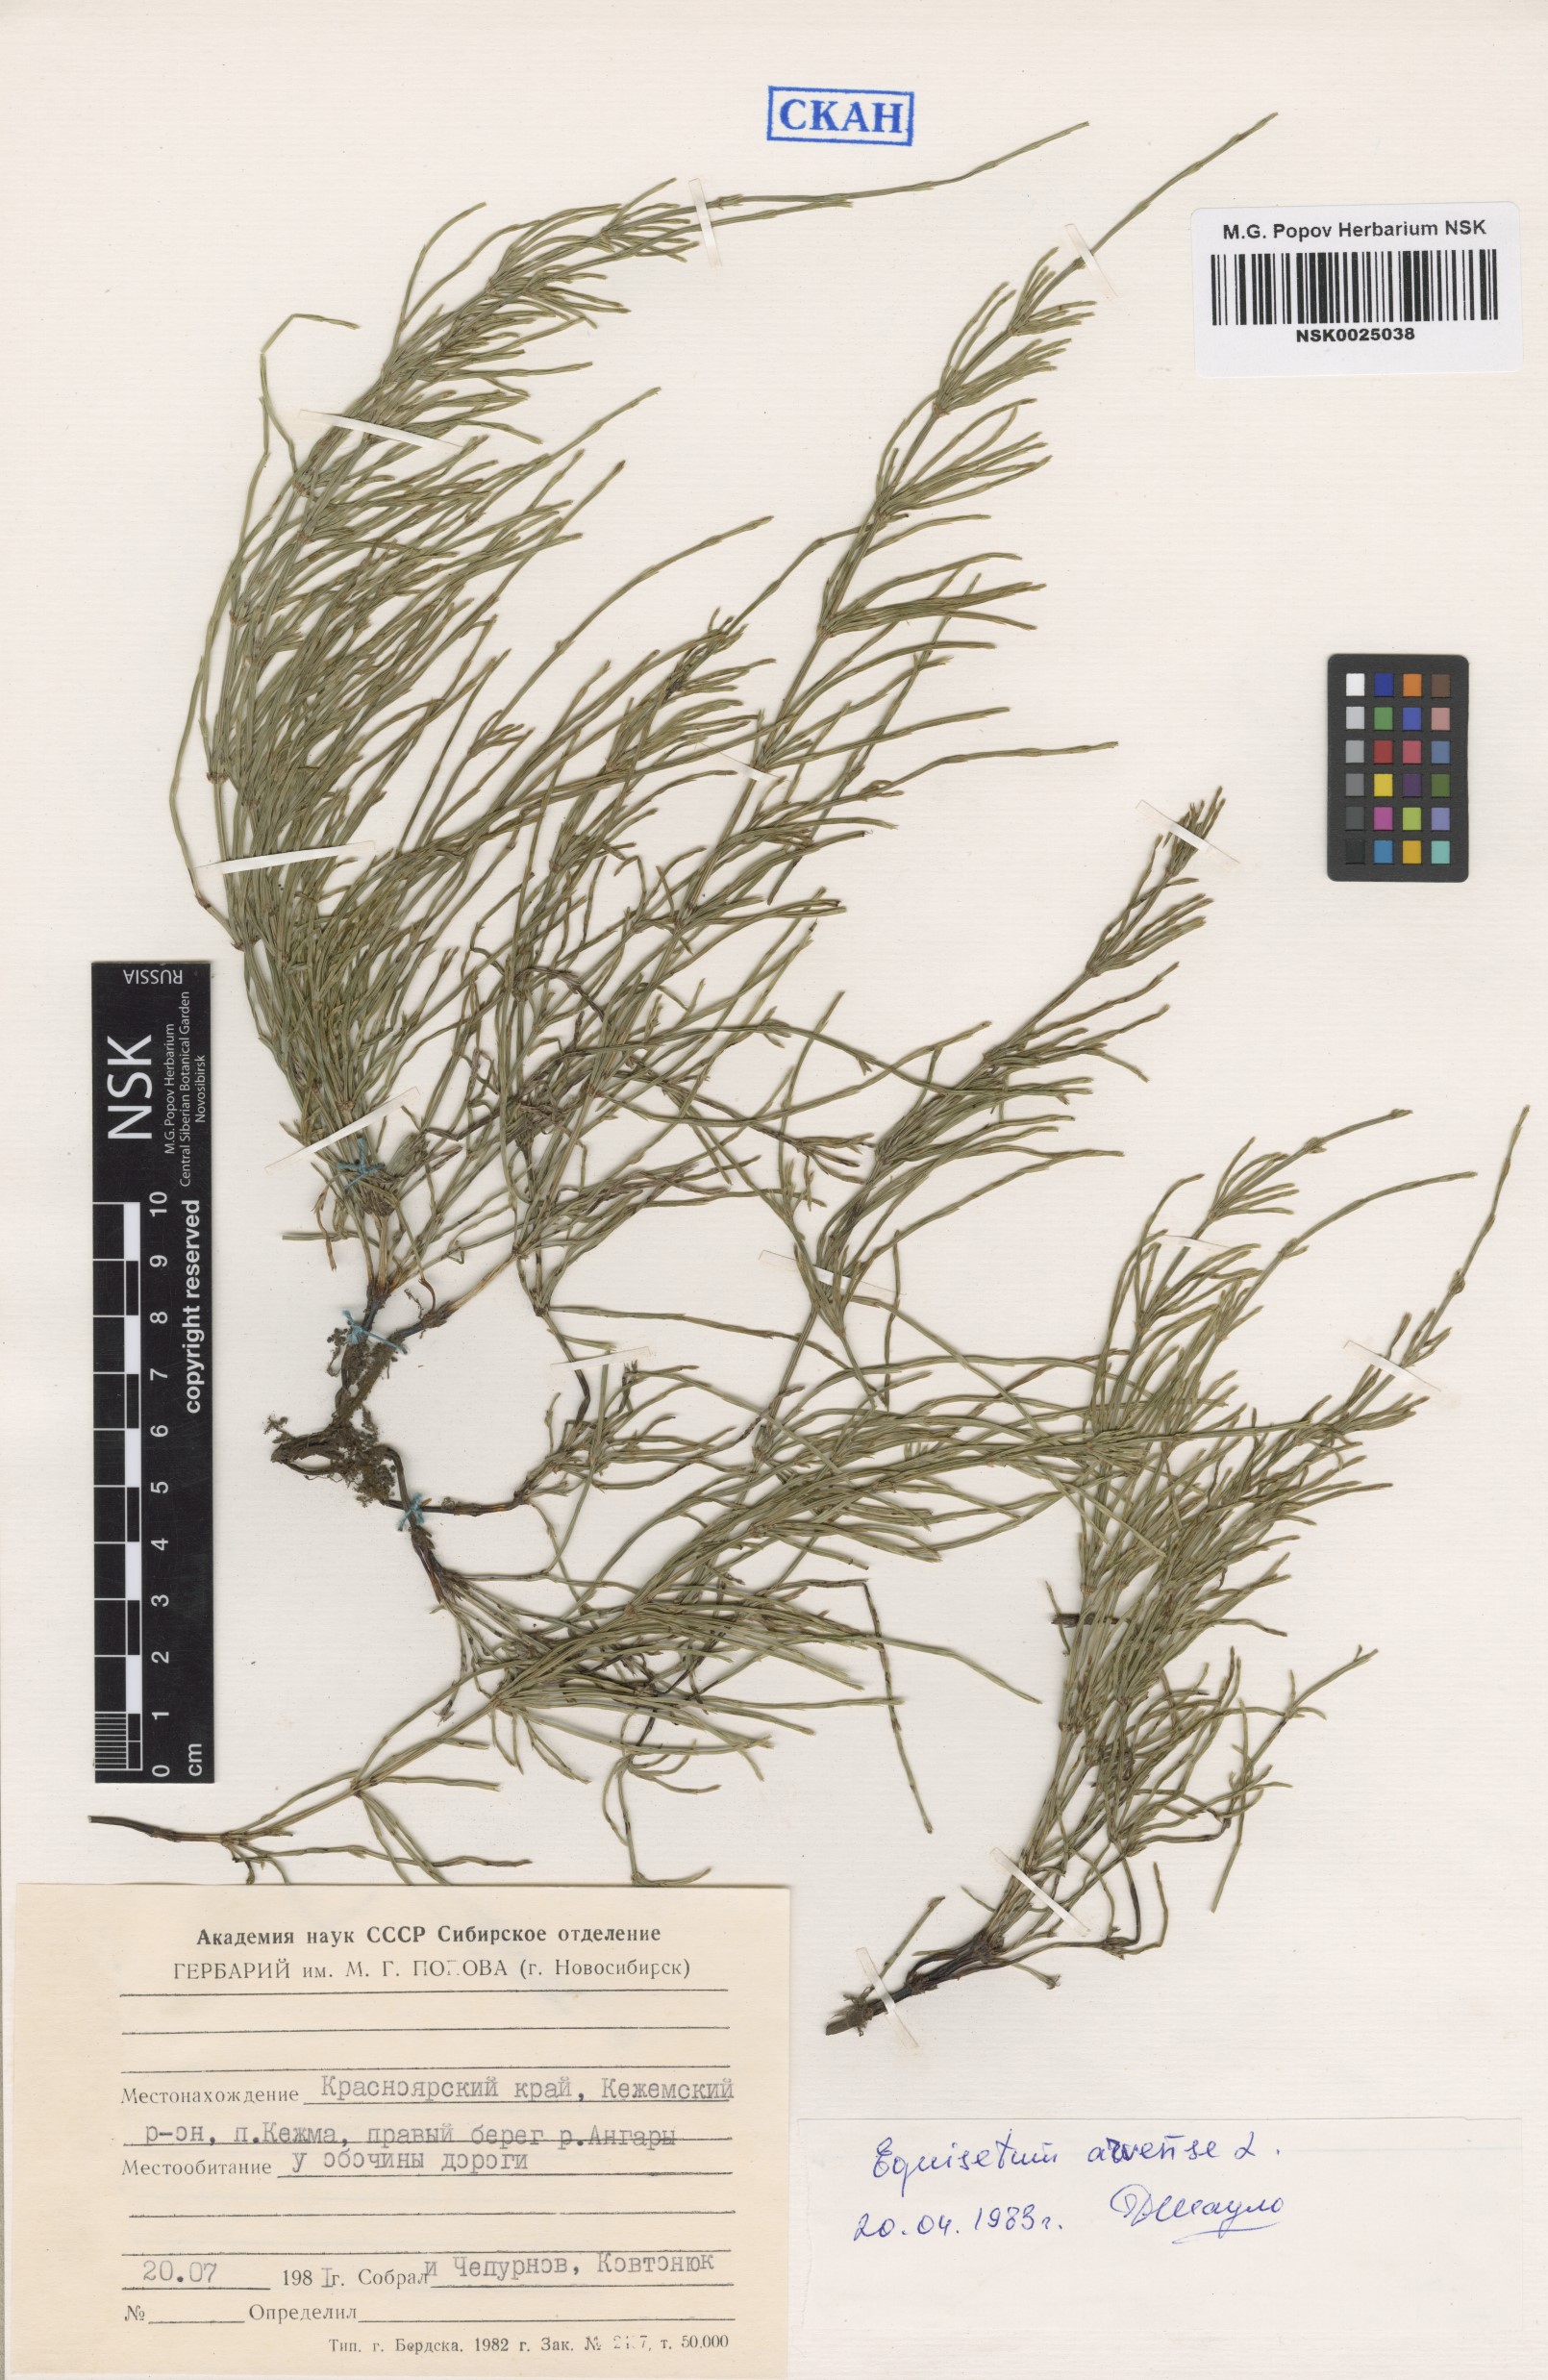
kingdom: Plantae
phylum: Tracheophyta
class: Polypodiopsida
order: Equisetales
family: Equisetaceae
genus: Equisetum
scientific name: Equisetum arvense
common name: Field horsetail
